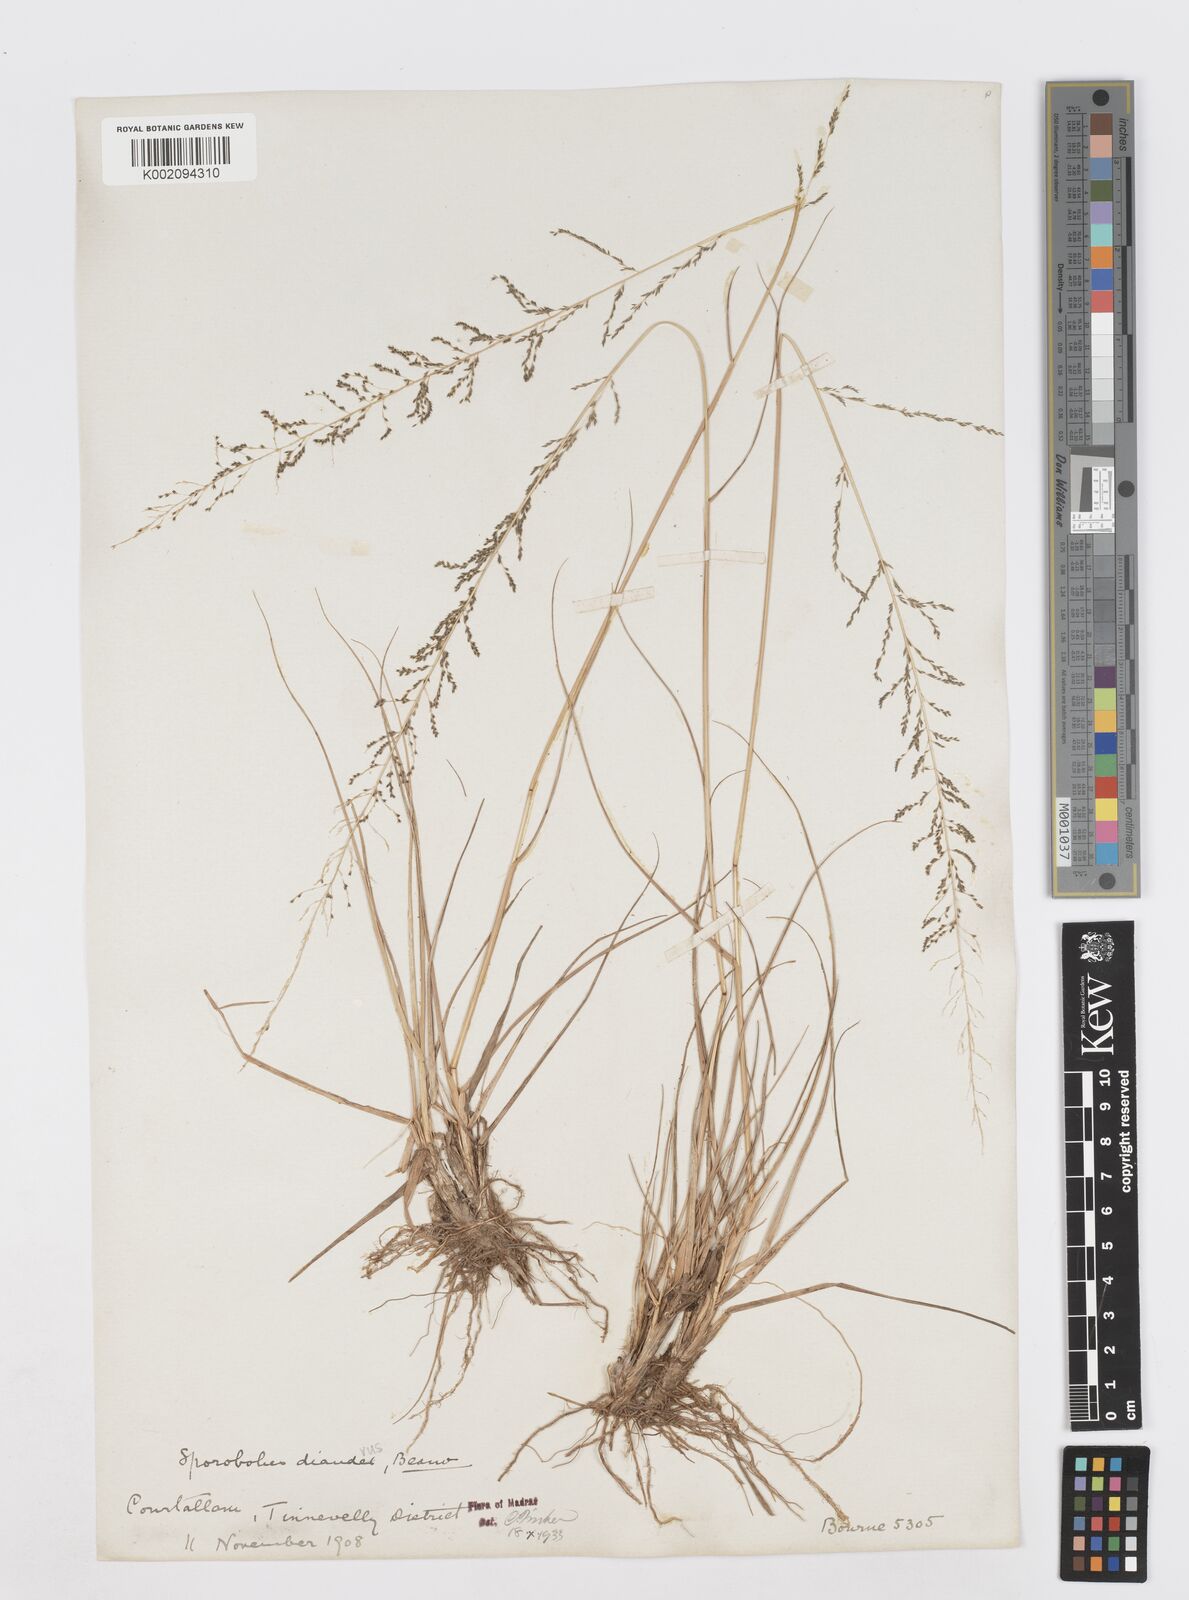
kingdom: Plantae
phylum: Tracheophyta
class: Liliopsida
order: Poales
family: Poaceae
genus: Sporobolus
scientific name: Sporobolus diandrus
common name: Tussock dropseed
